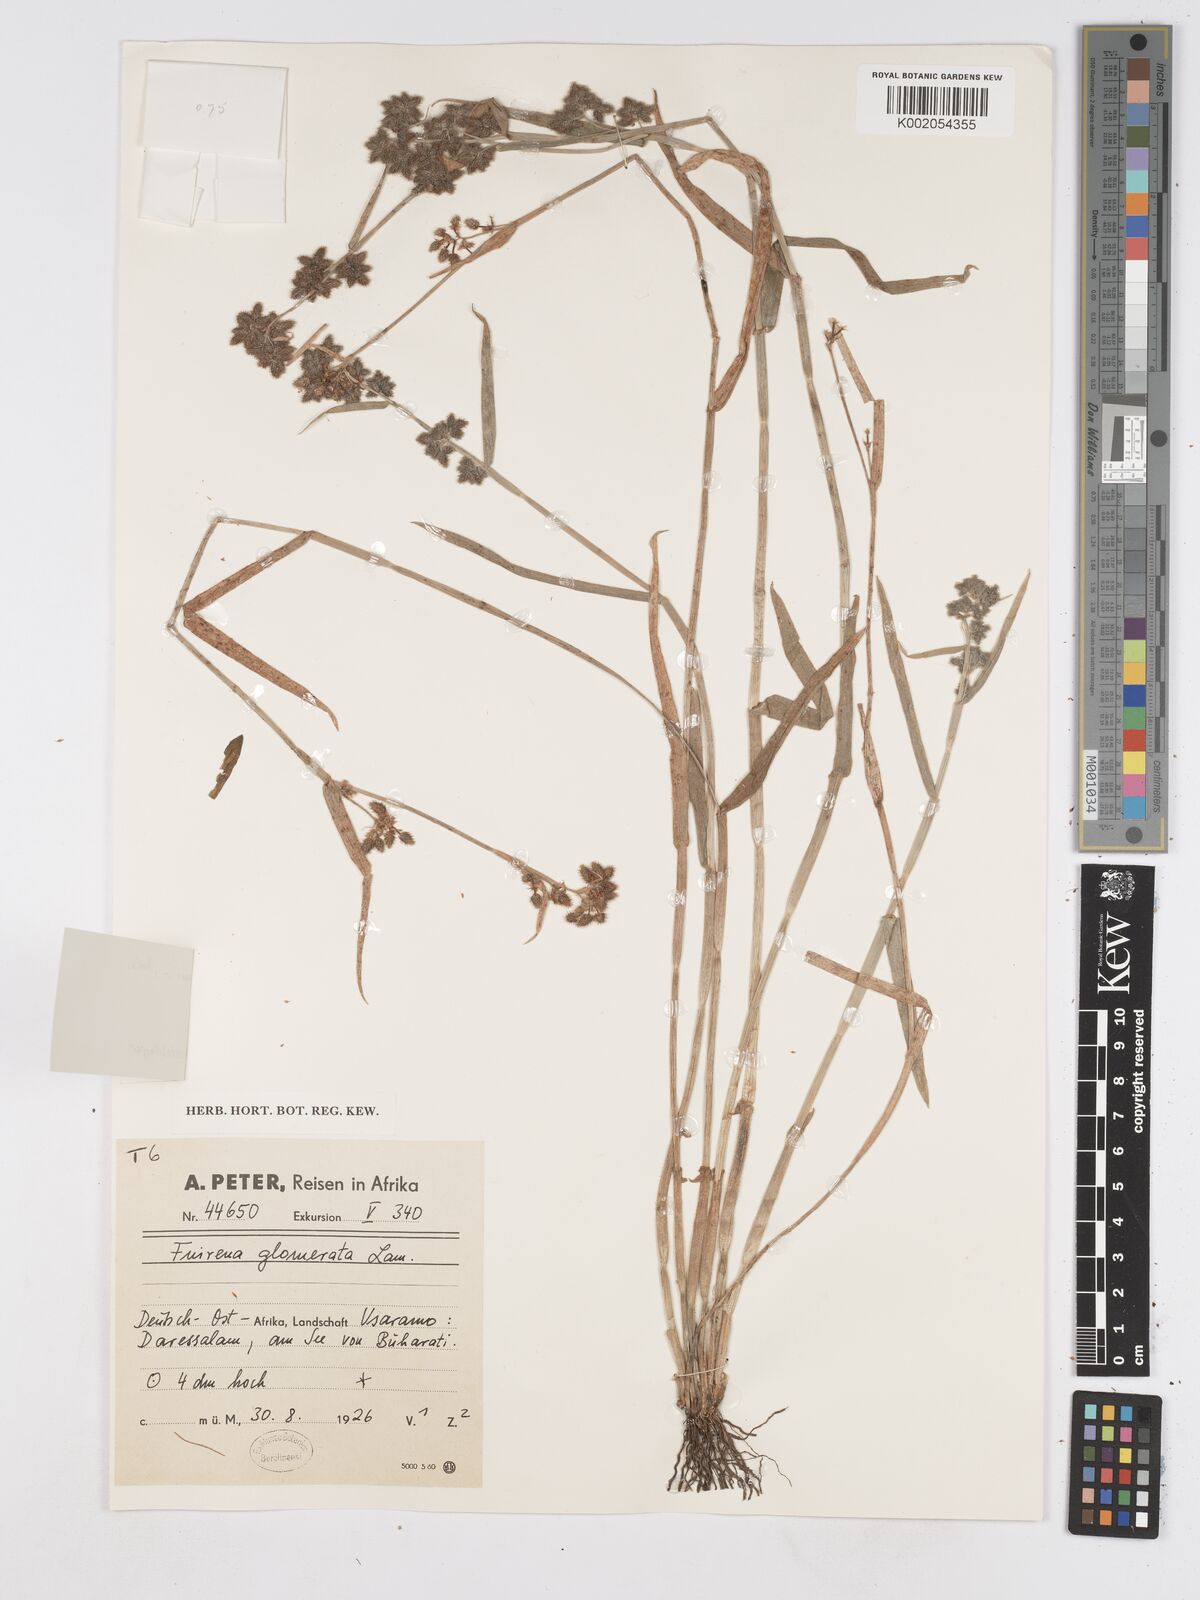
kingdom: Plantae
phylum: Tracheophyta
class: Liliopsida
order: Poales
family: Cyperaceae
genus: Fuirena
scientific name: Fuirena ciliaris
